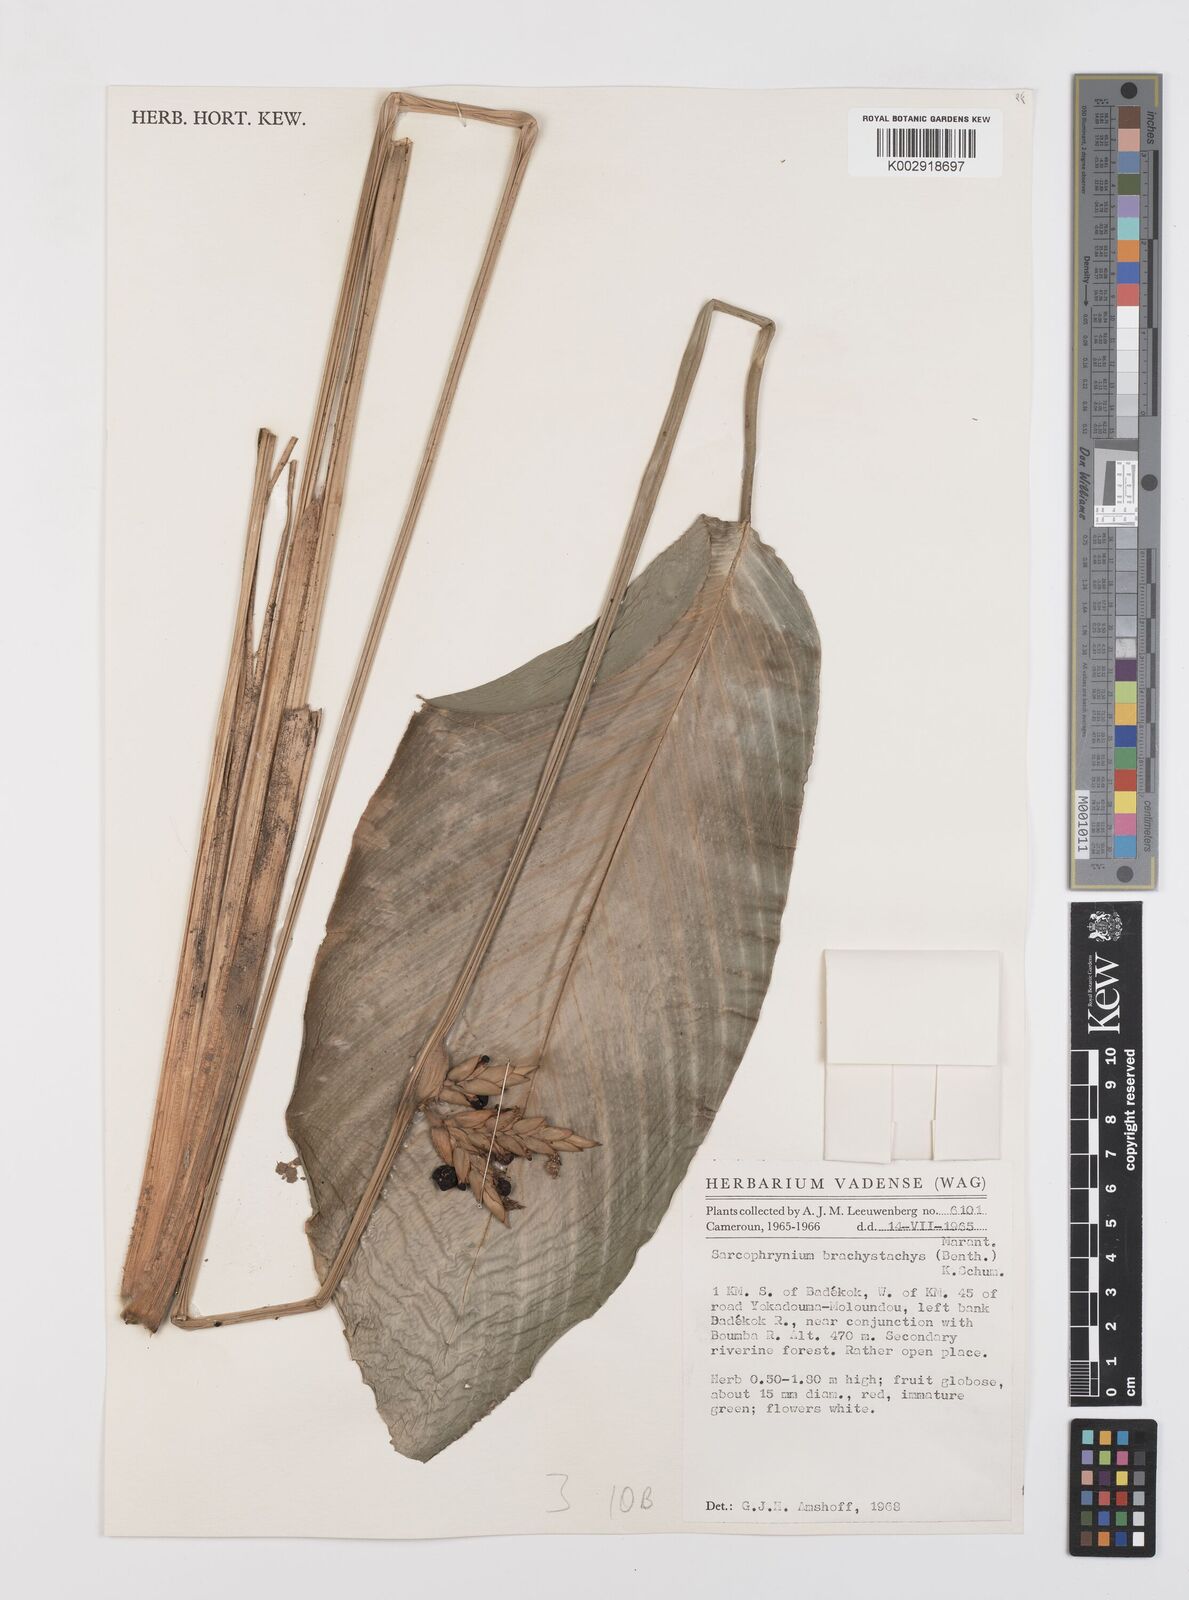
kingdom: Plantae
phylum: Tracheophyta
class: Liliopsida
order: Zingiberales
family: Marantaceae
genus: Sarcophrynium
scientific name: Sarcophrynium brachystachyum
